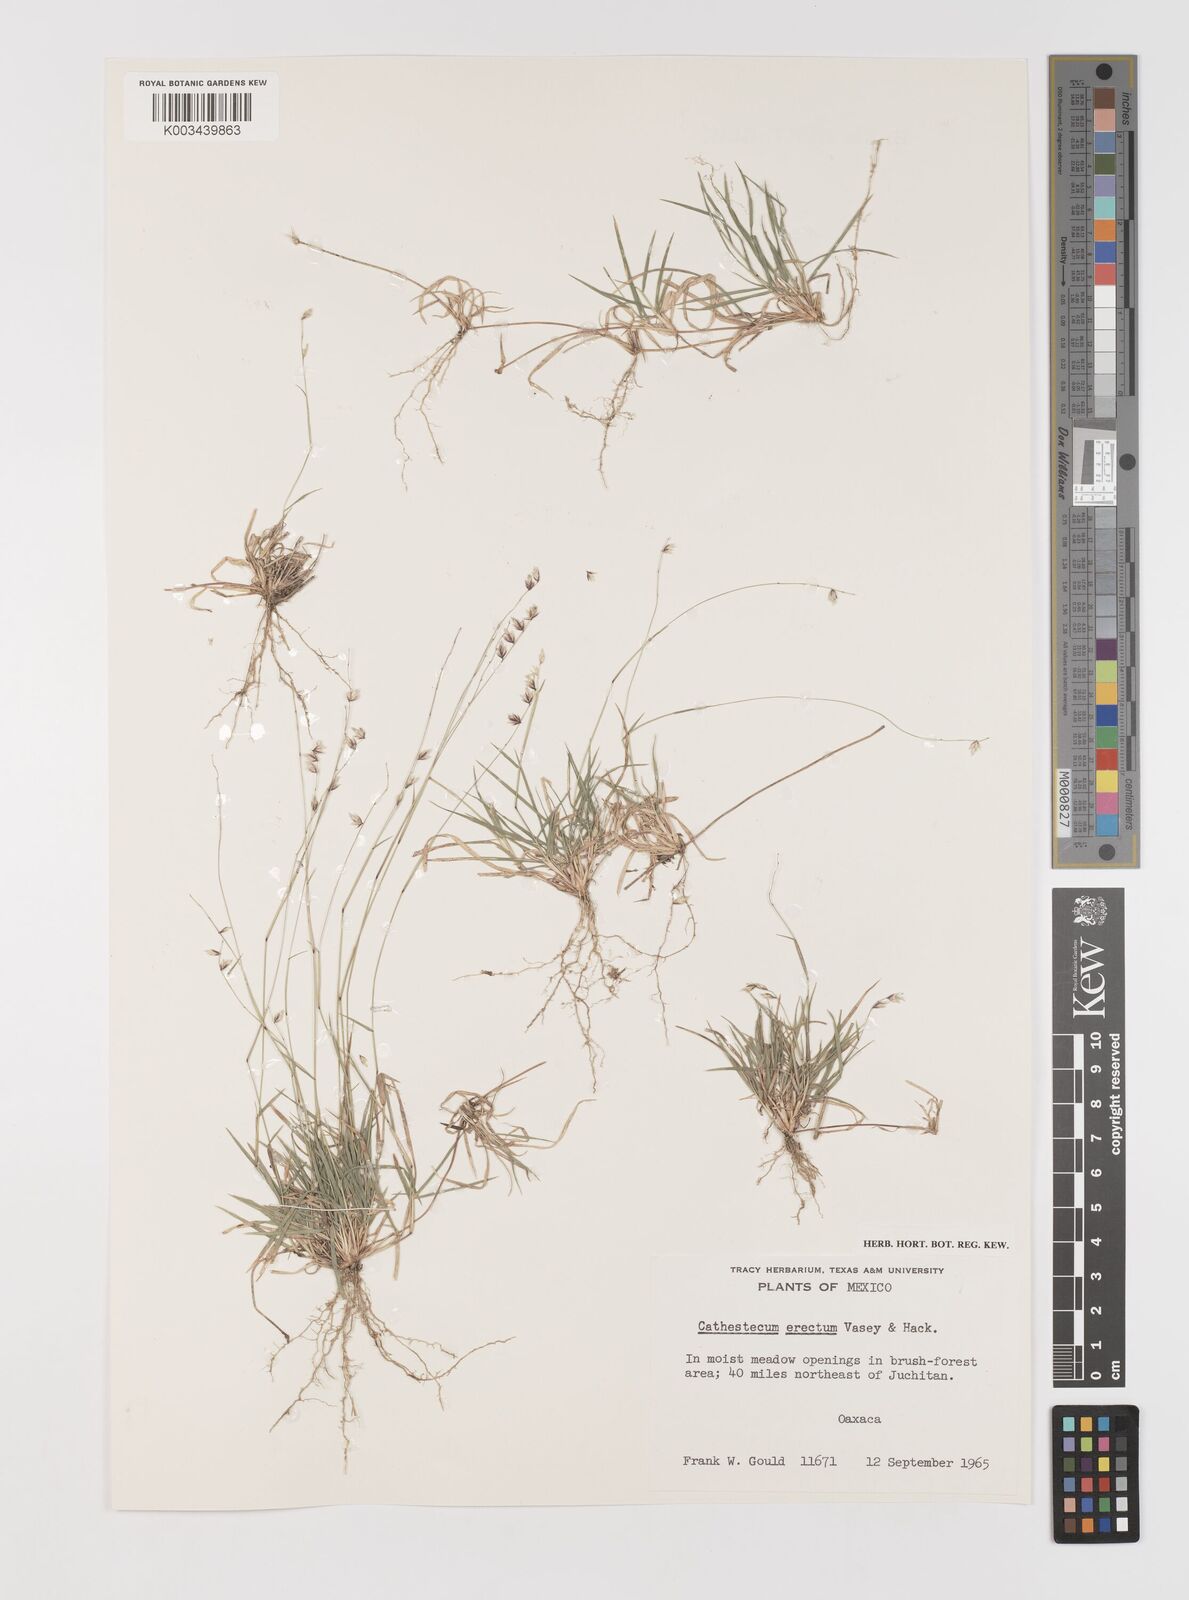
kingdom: Plantae
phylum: Tracheophyta
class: Liliopsida
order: Poales
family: Poaceae
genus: Bouteloua
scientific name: Bouteloua erecta
